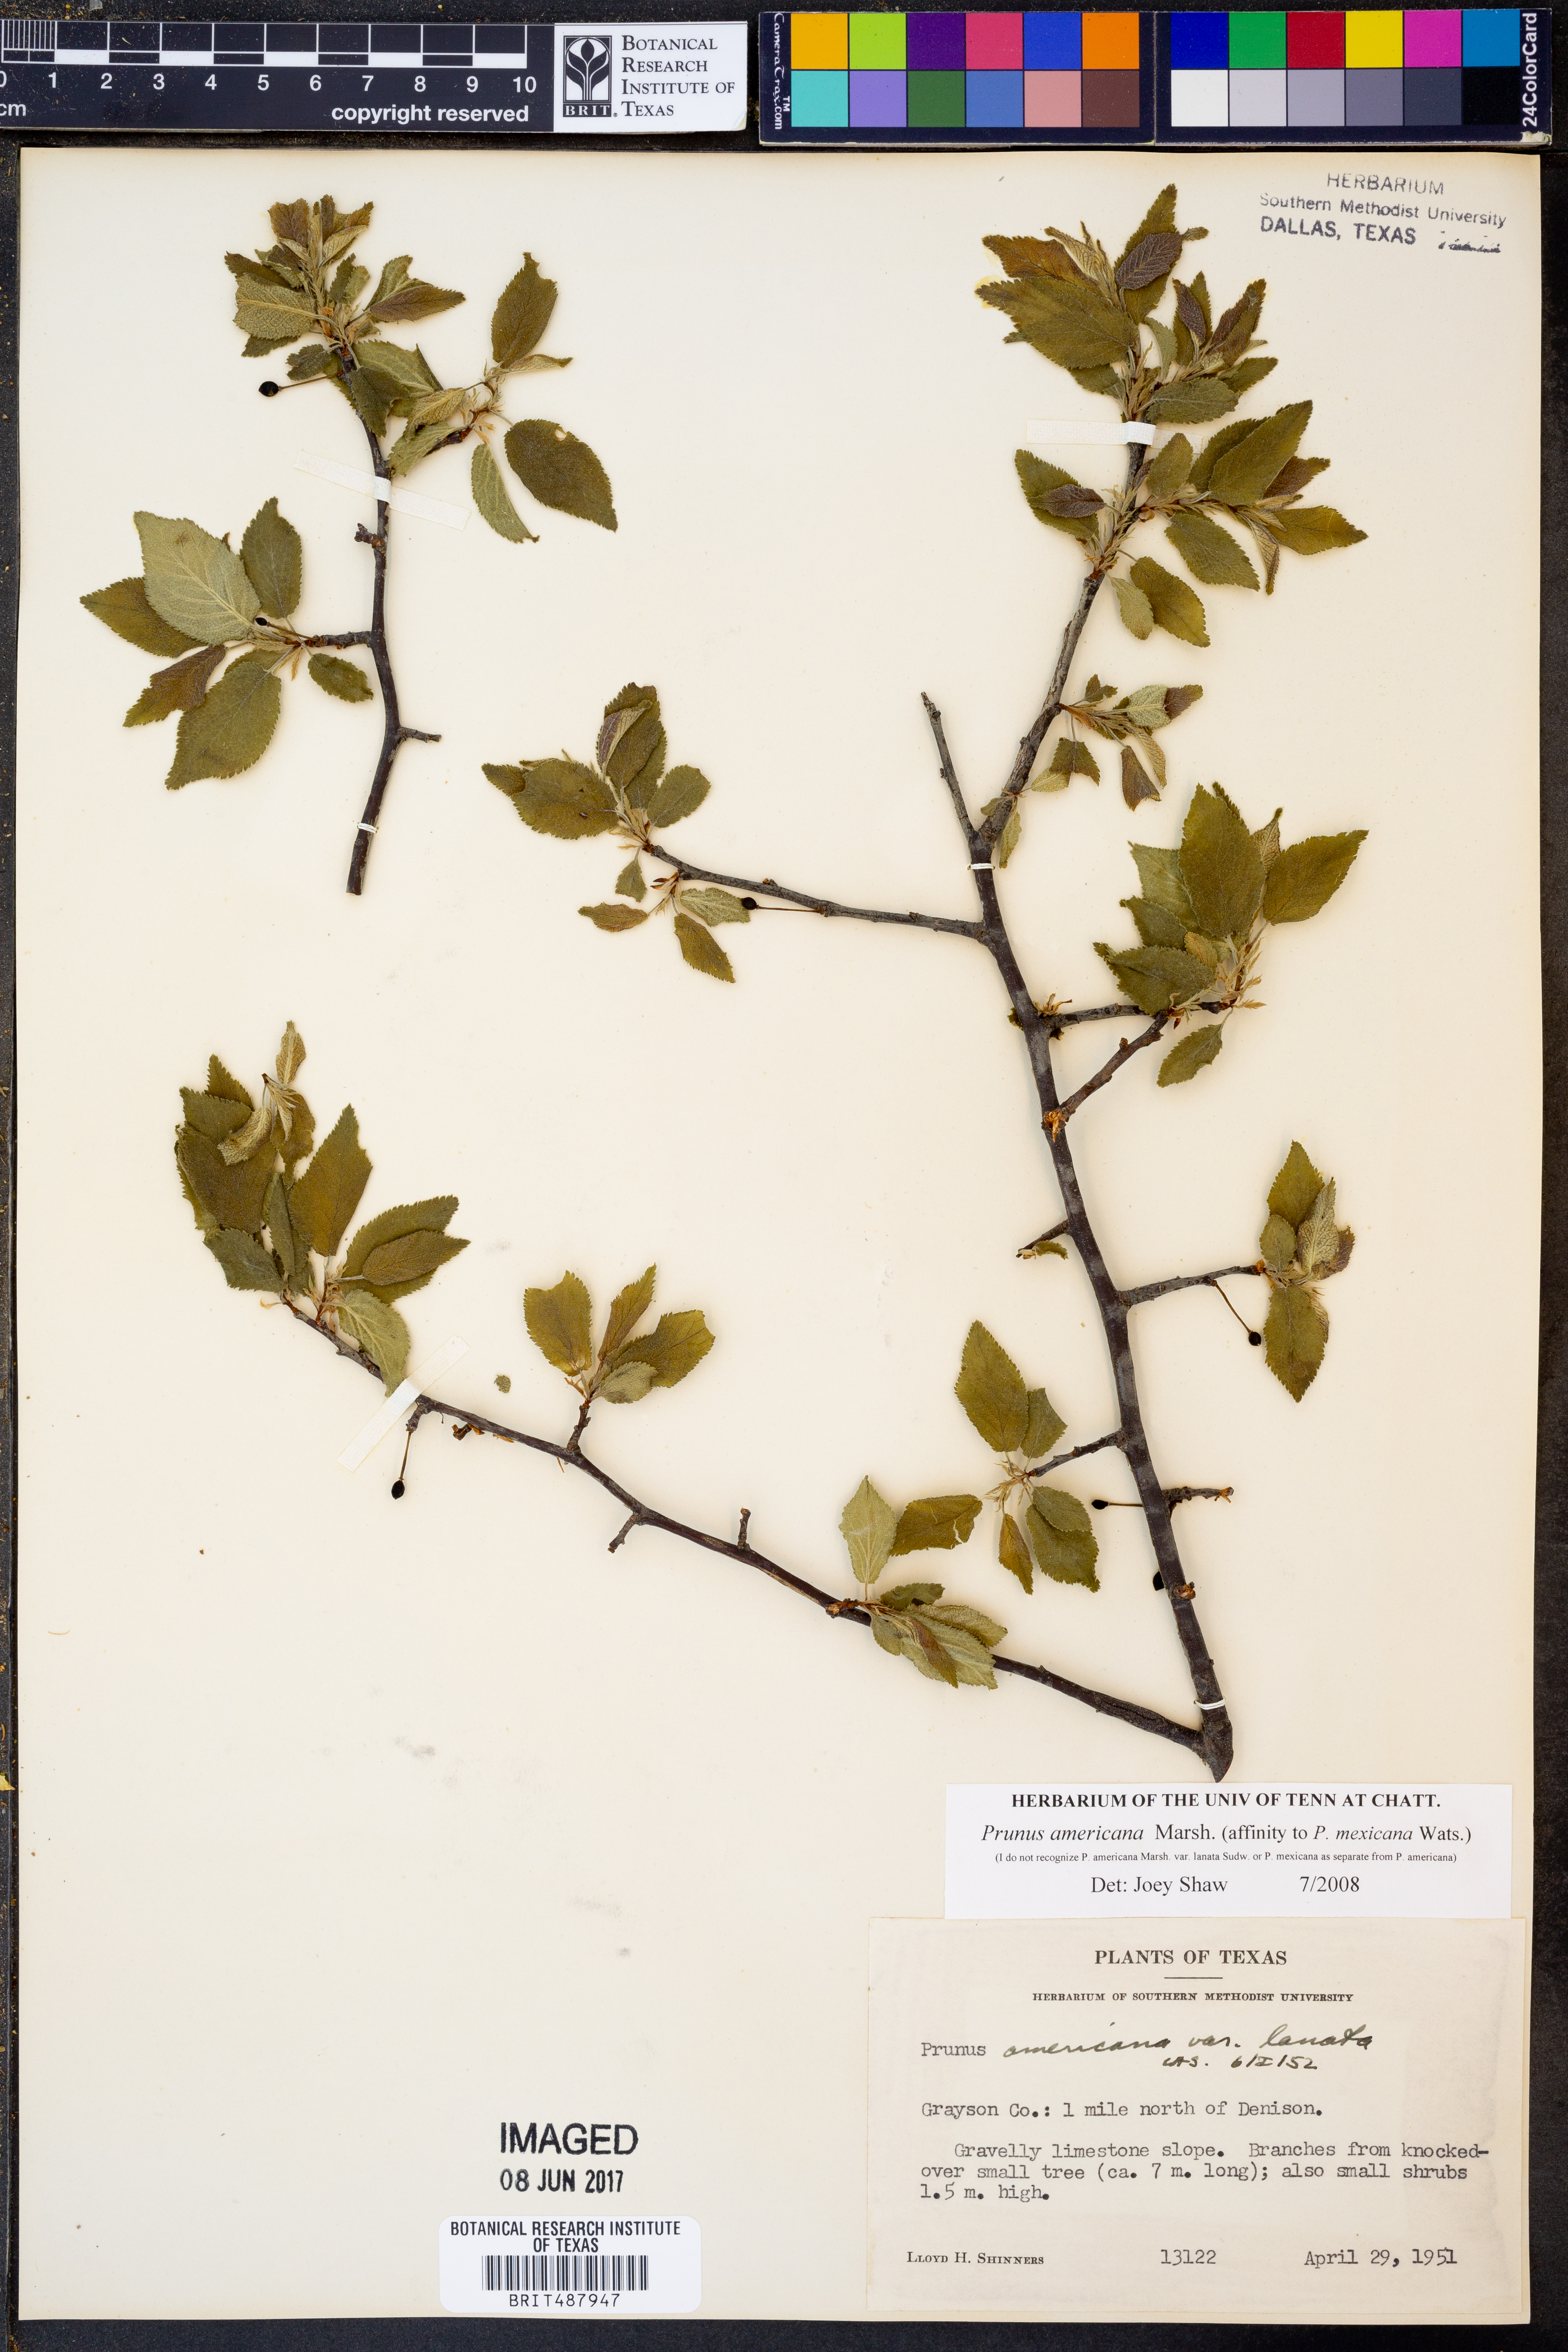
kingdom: Plantae
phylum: Tracheophyta
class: Magnoliopsida
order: Rosales
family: Rosaceae
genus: Prunus
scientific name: Prunus americana
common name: American plum
